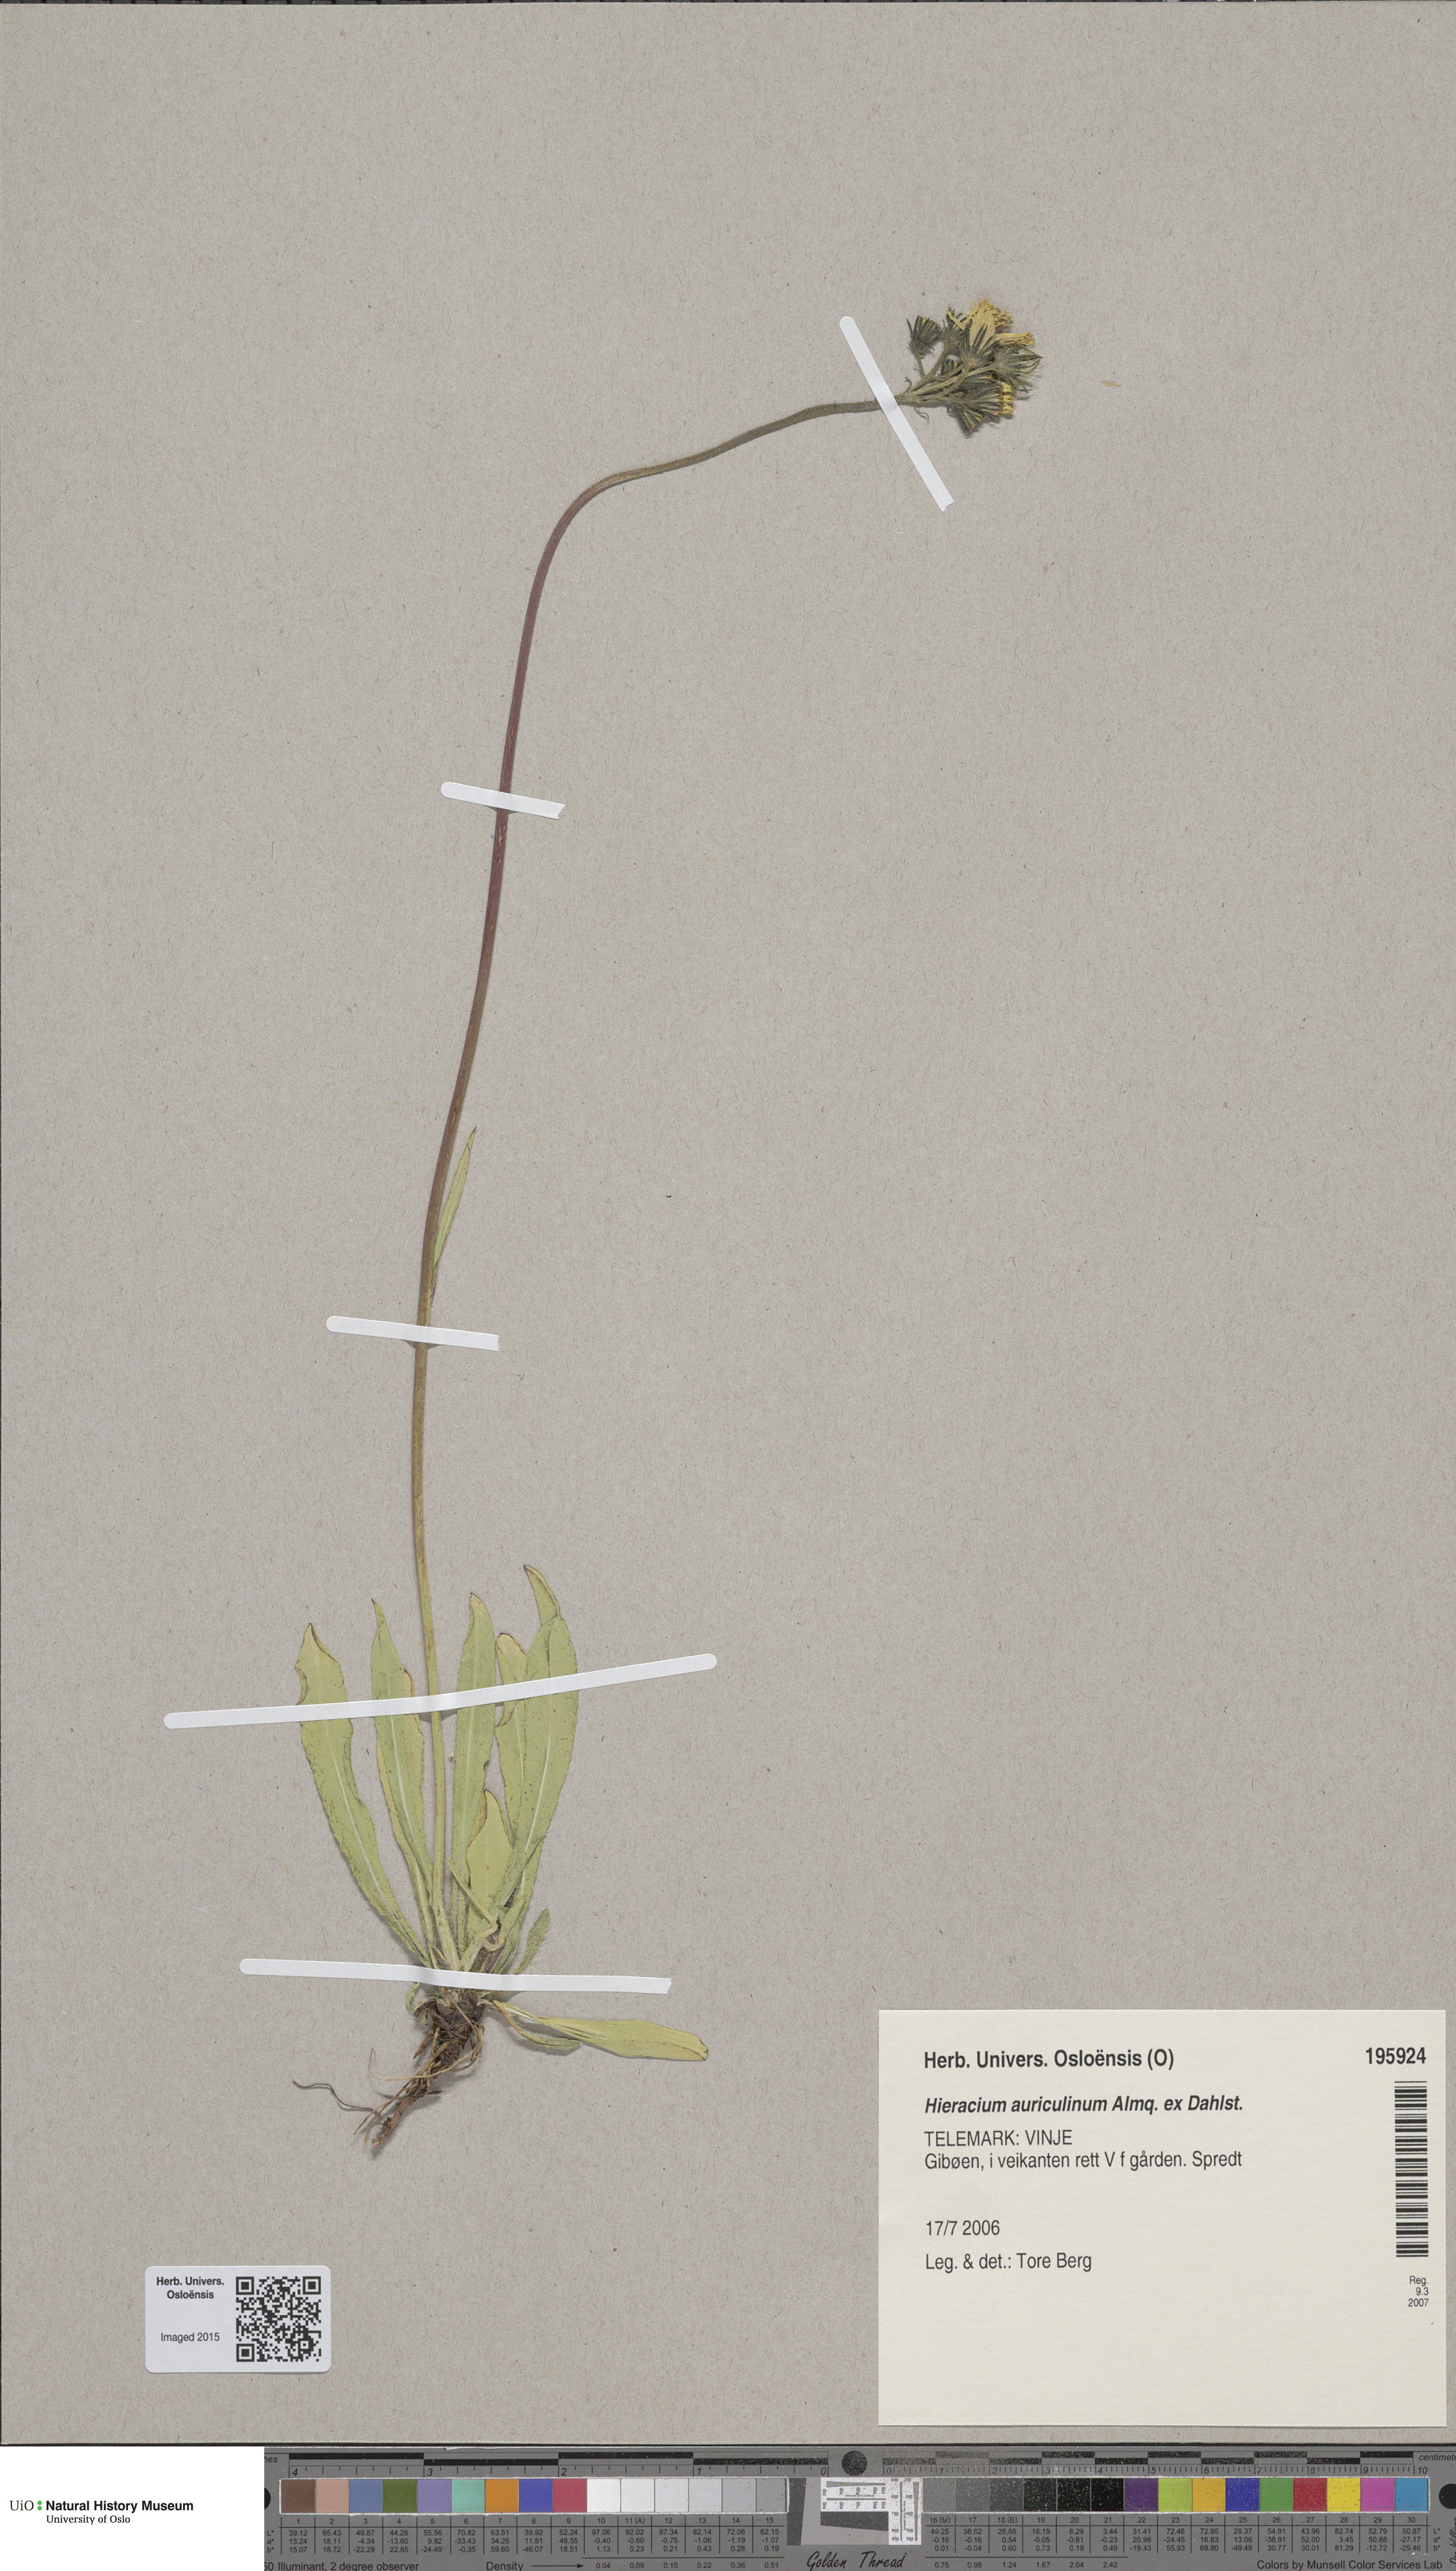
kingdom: Plantae
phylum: Tracheophyta
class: Magnoliopsida
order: Asterales
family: Asteraceae
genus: Pilosella
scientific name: Pilosella dubia
